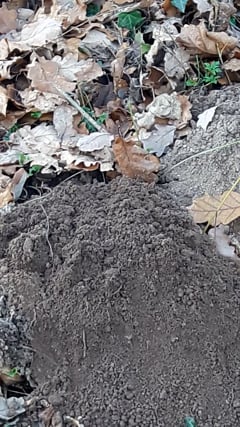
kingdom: Animalia
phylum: Chordata
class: Mammalia
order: Soricomorpha
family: Talpidae
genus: Talpa
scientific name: Talpa europaea
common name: European mole
